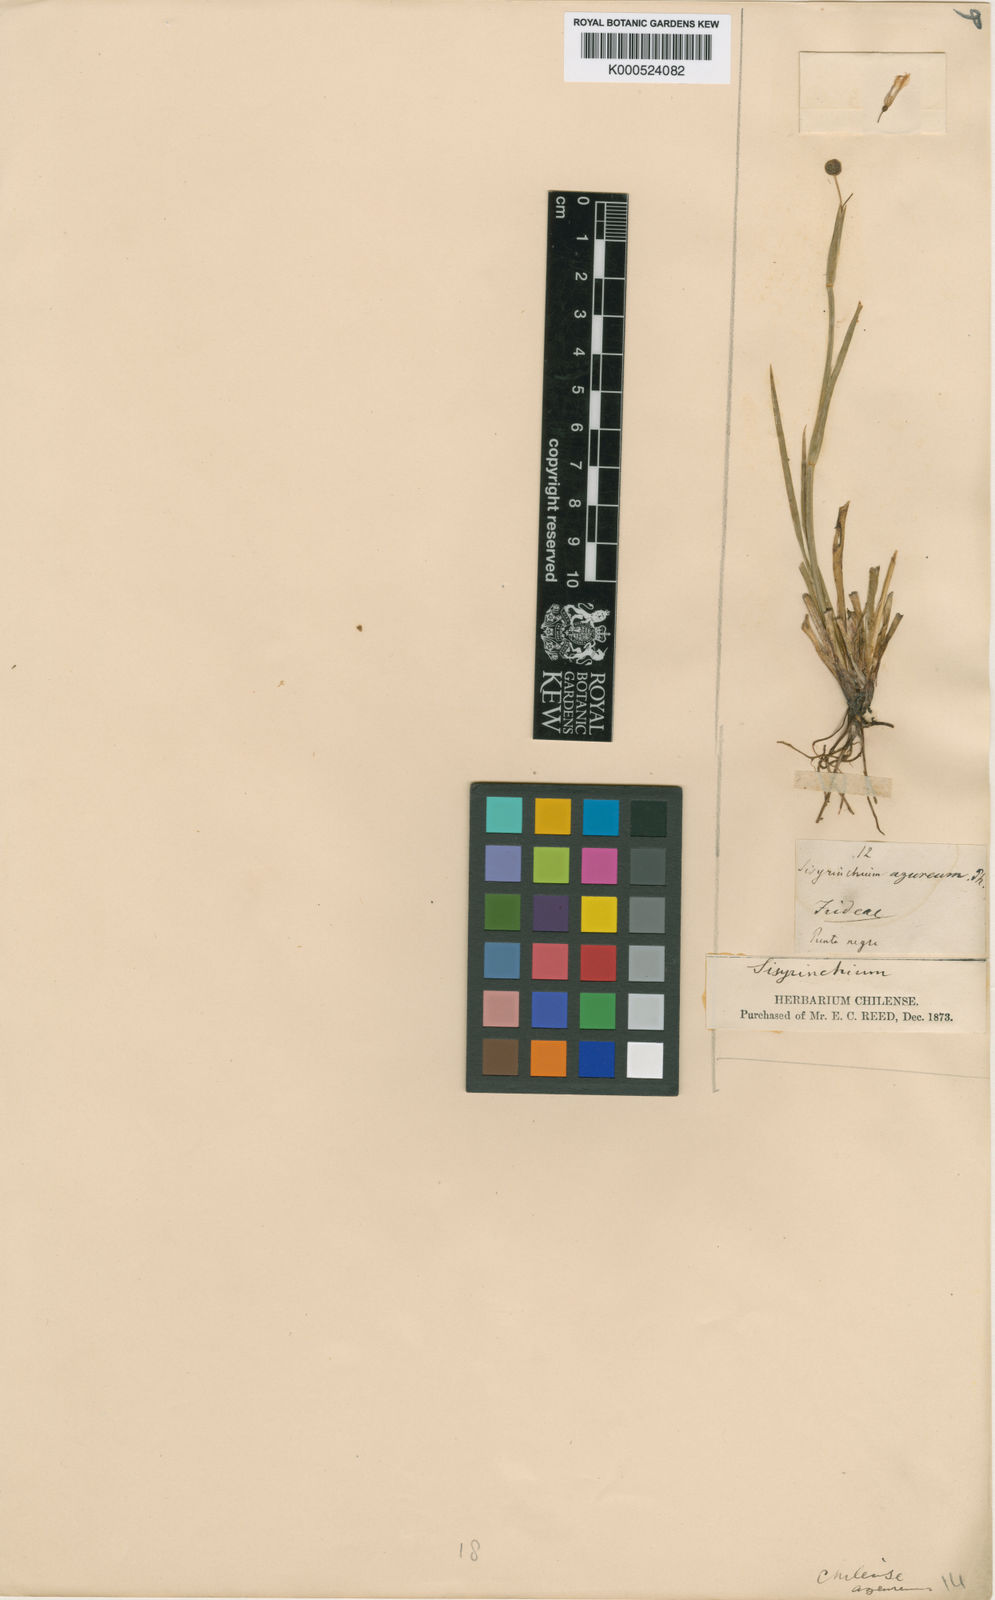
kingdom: Plantae
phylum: Tracheophyta
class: Liliopsida
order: Asparagales
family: Iridaceae
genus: Sisyrinchium
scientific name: Sisyrinchium chilense
